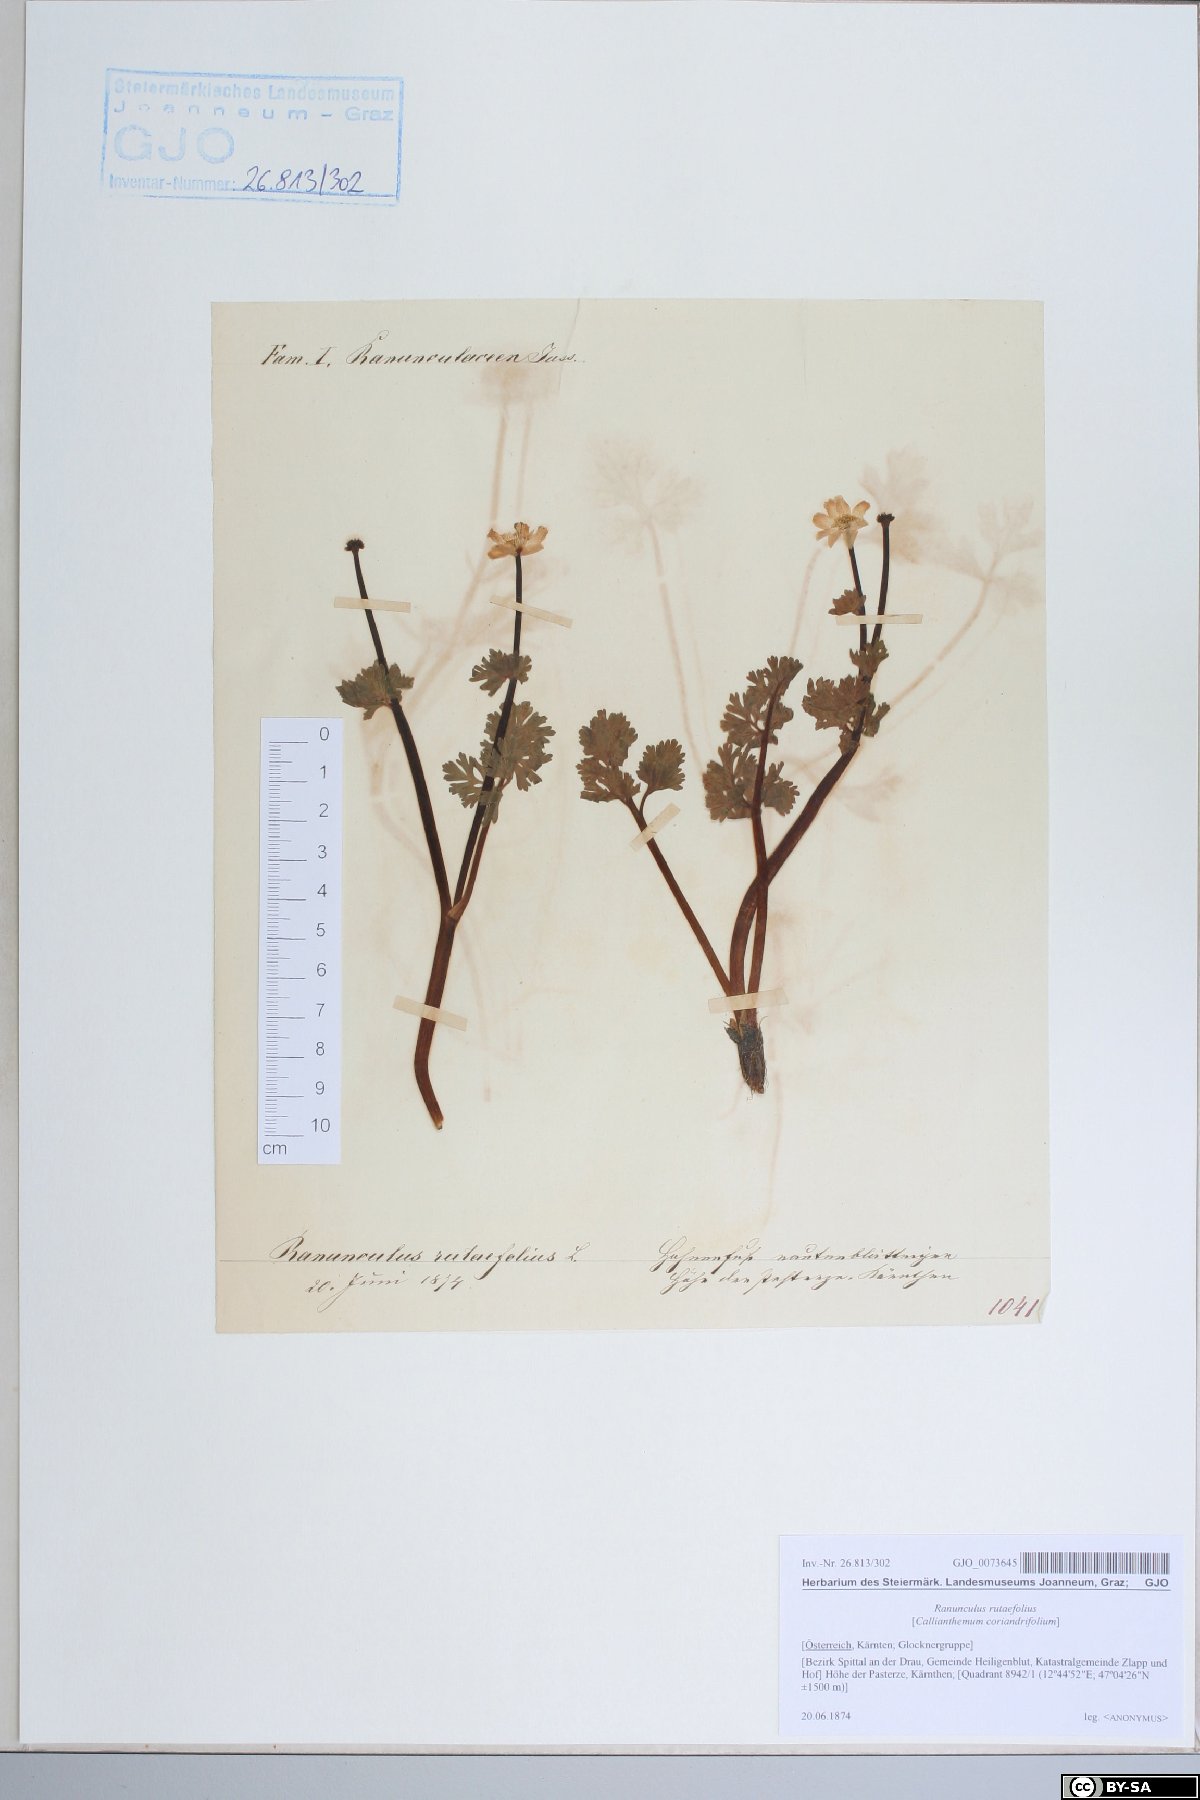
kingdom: Plantae
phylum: Tracheophyta
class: Magnoliopsida
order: Ranunculales
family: Ranunculaceae
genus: Callianthemum
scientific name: Callianthemum anemonoides
